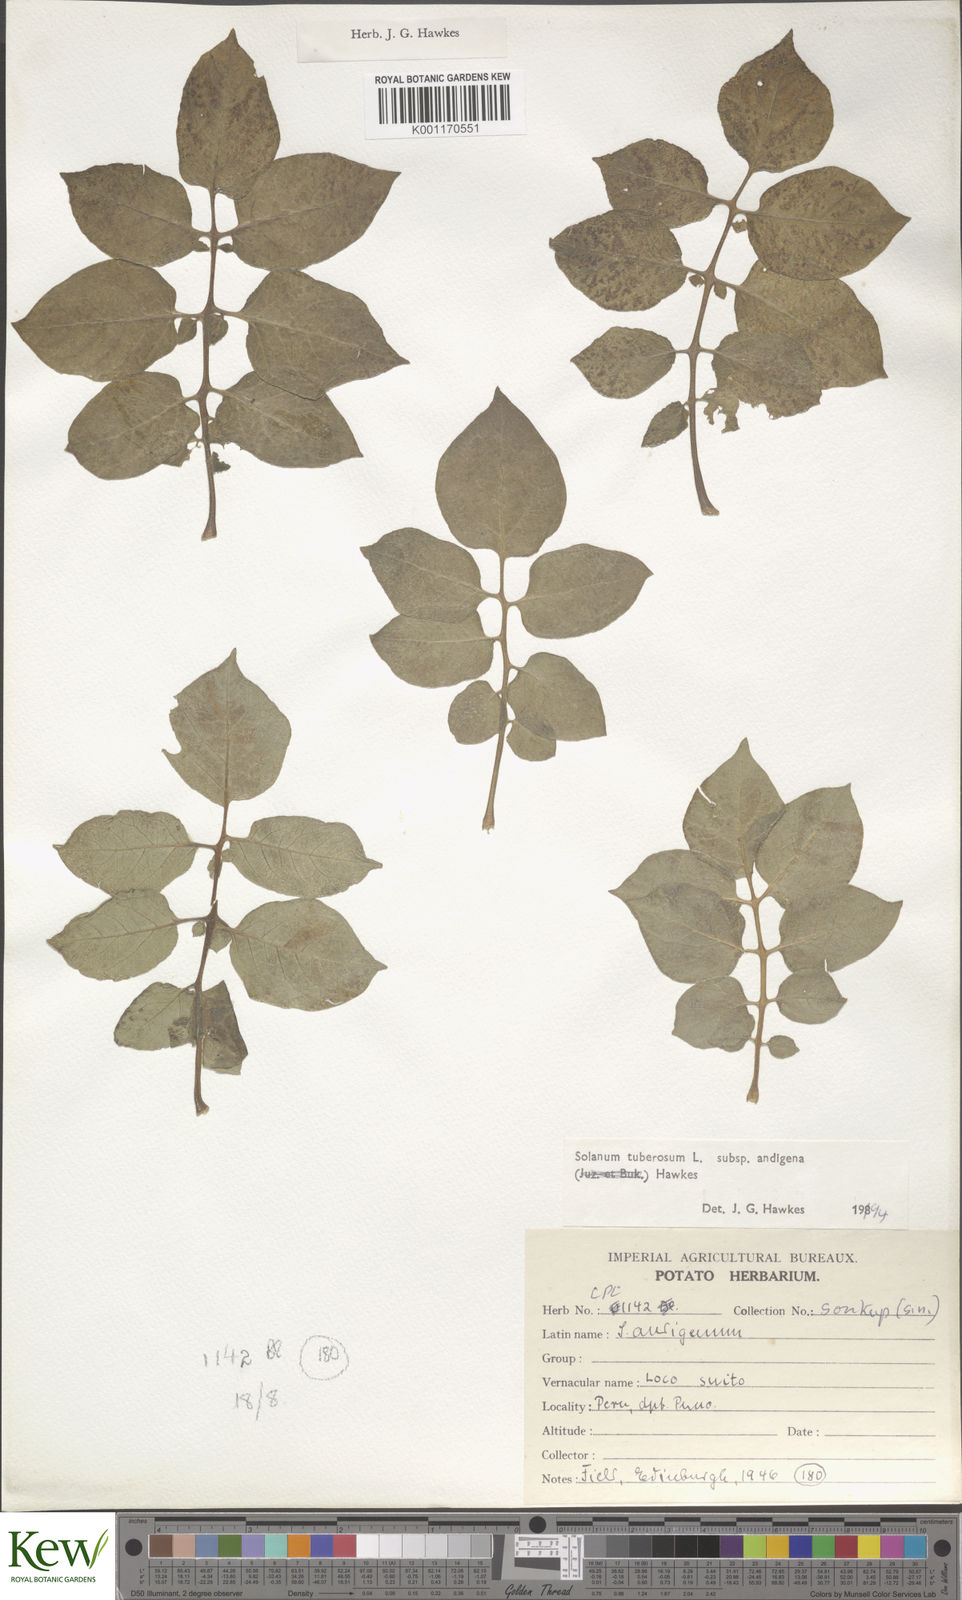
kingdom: Plantae
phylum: Tracheophyta
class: Magnoliopsida
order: Solanales
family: Solanaceae
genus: Solanum
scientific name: Solanum tuberosum
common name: Potato
